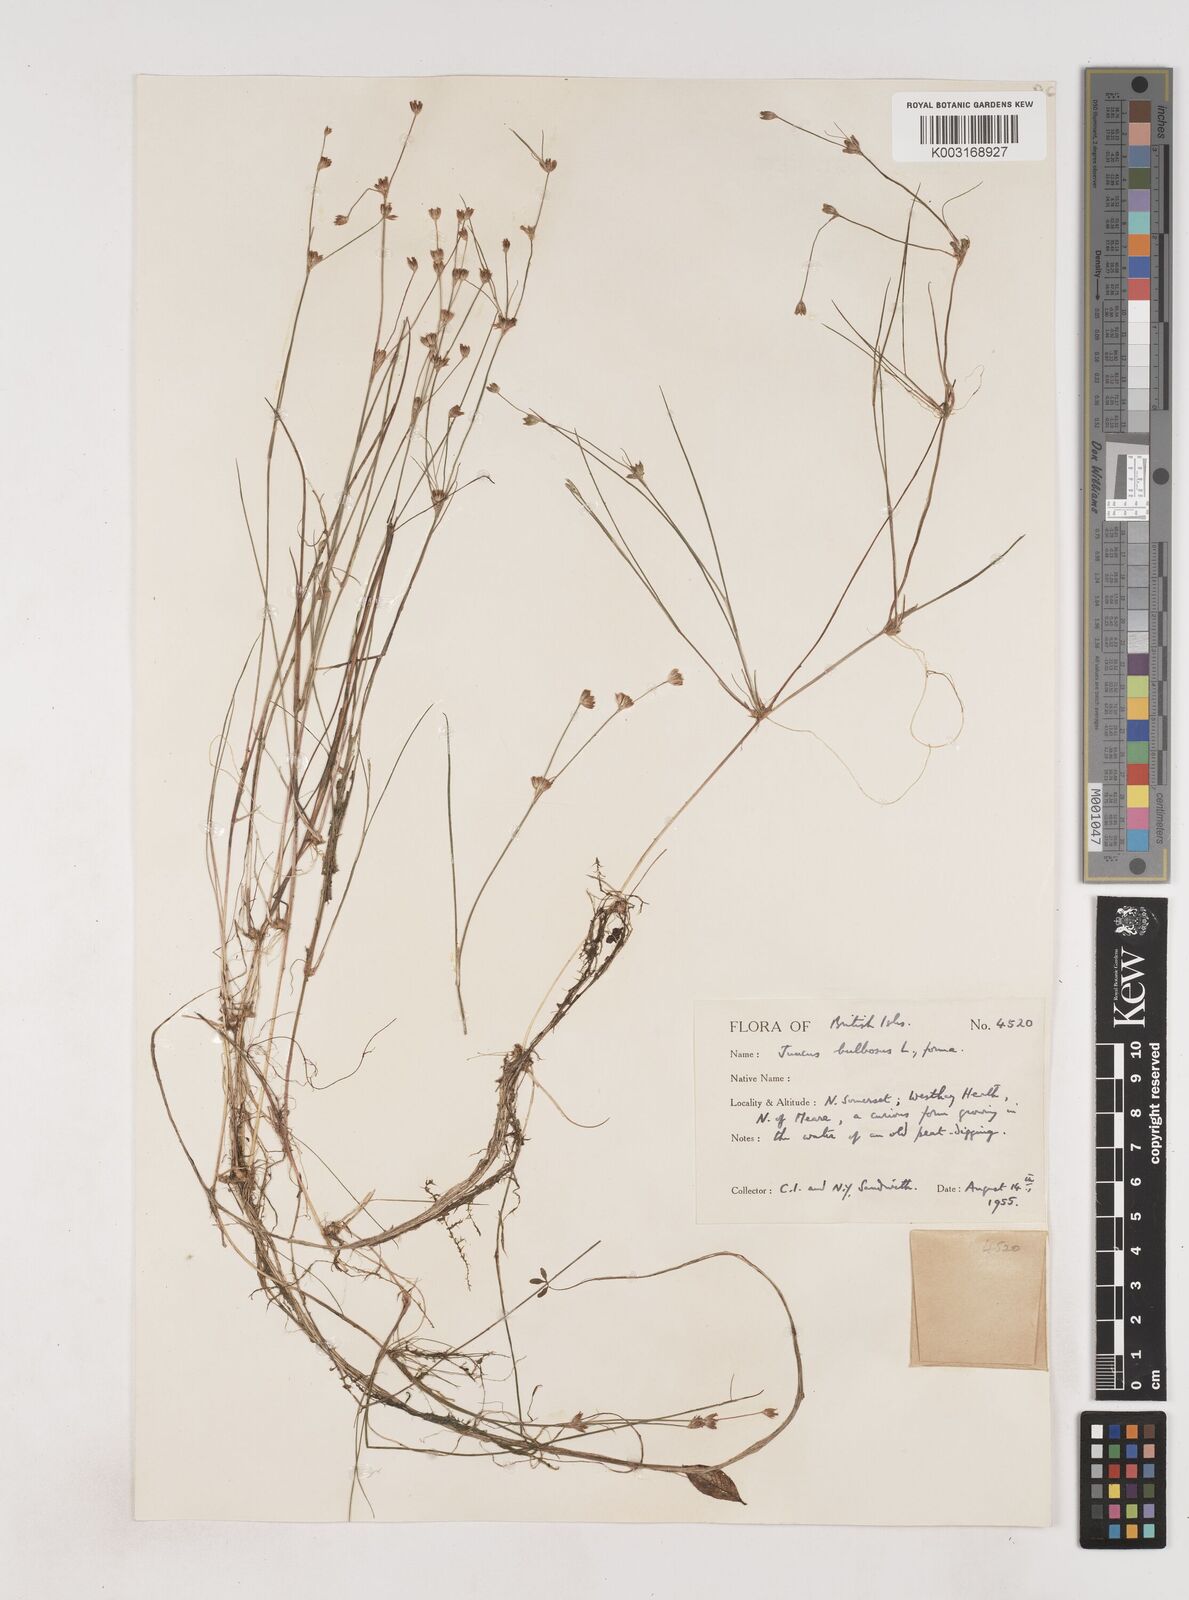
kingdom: Plantae
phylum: Tracheophyta
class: Liliopsida
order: Poales
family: Juncaceae
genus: Juncus
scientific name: Juncus bulbosus
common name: Bulbous rush
